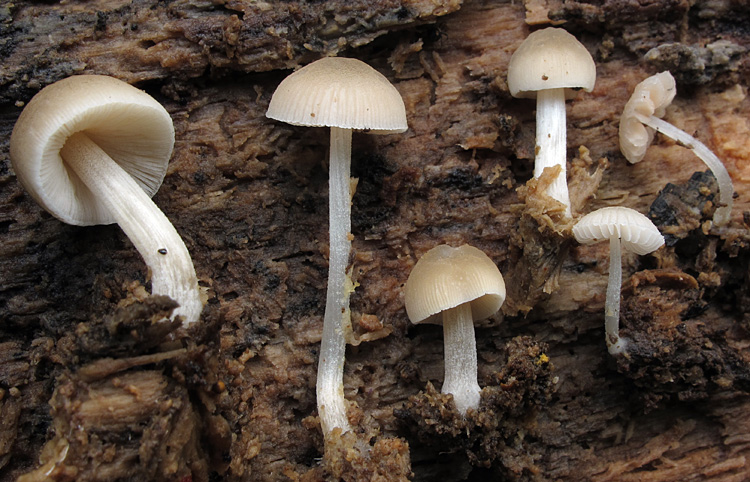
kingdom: Fungi
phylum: Basidiomycota
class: Agaricomycetes
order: Agaricales
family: Pluteaceae
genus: Pluteus
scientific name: Pluteus semibulbosus
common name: knoldet skærmhat
